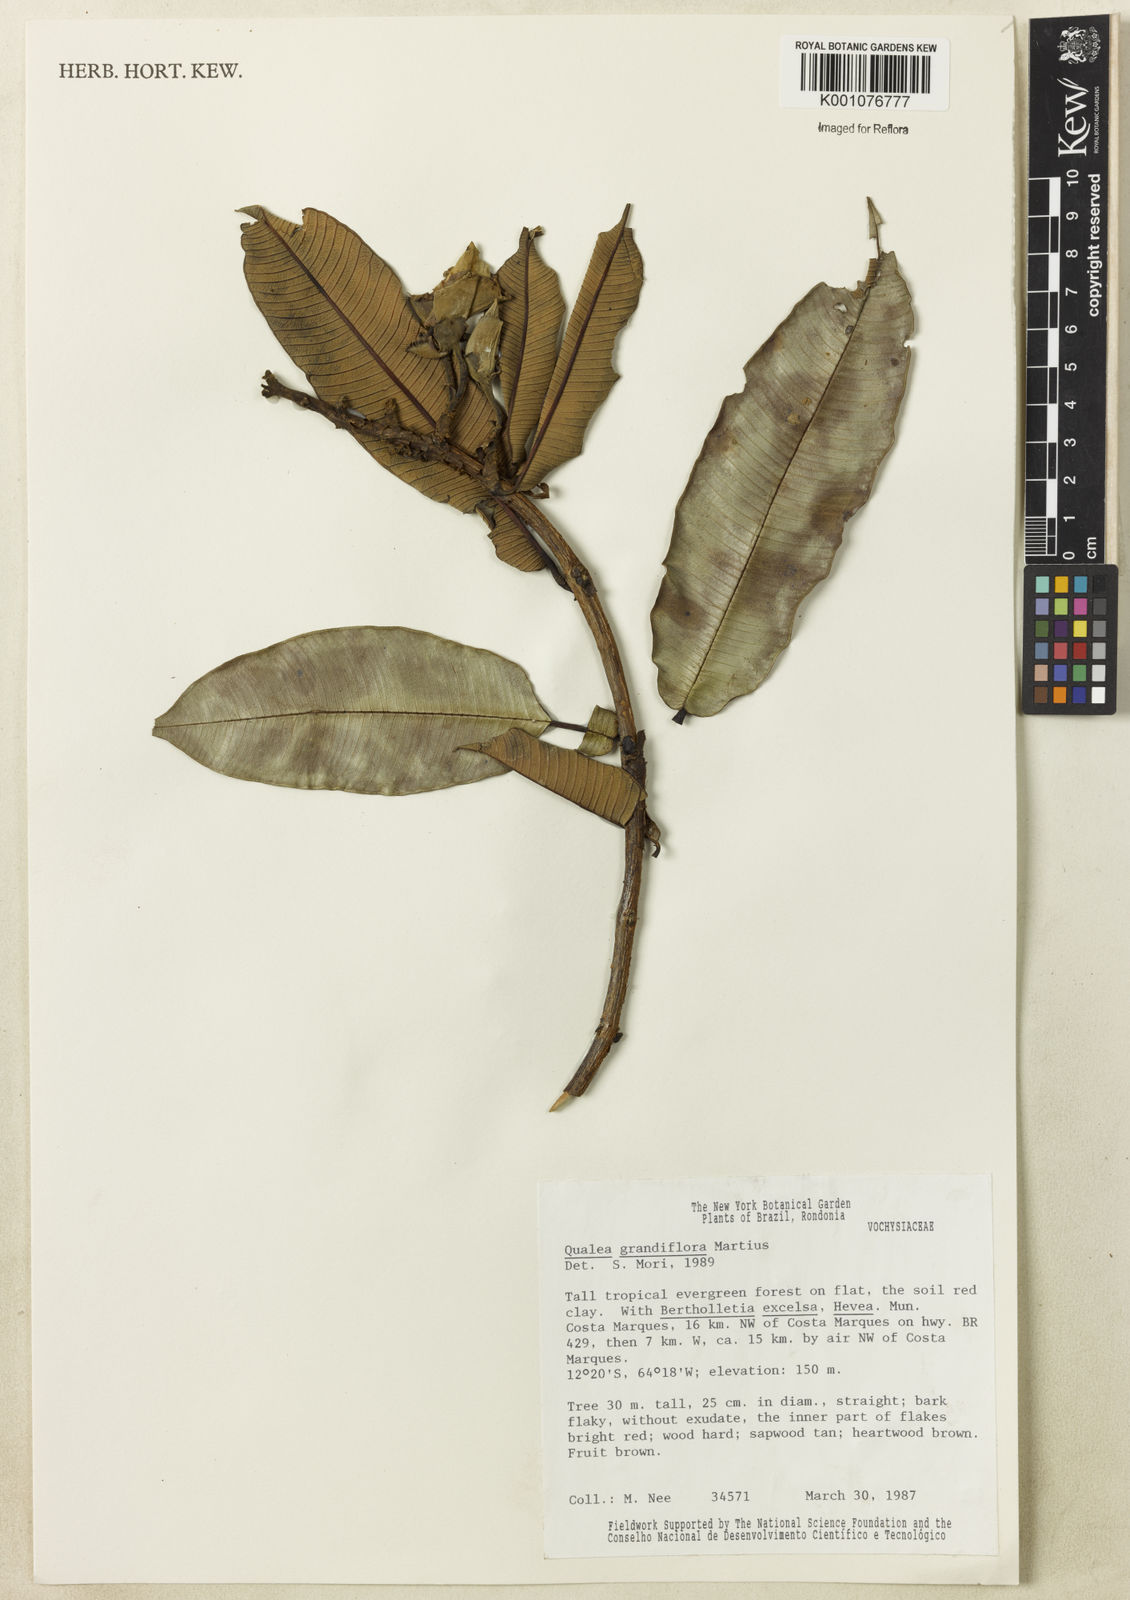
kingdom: Plantae
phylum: Tracheophyta
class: Magnoliopsida
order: Myrtales
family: Vochysiaceae
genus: Qualea
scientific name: Qualea grandiflora
